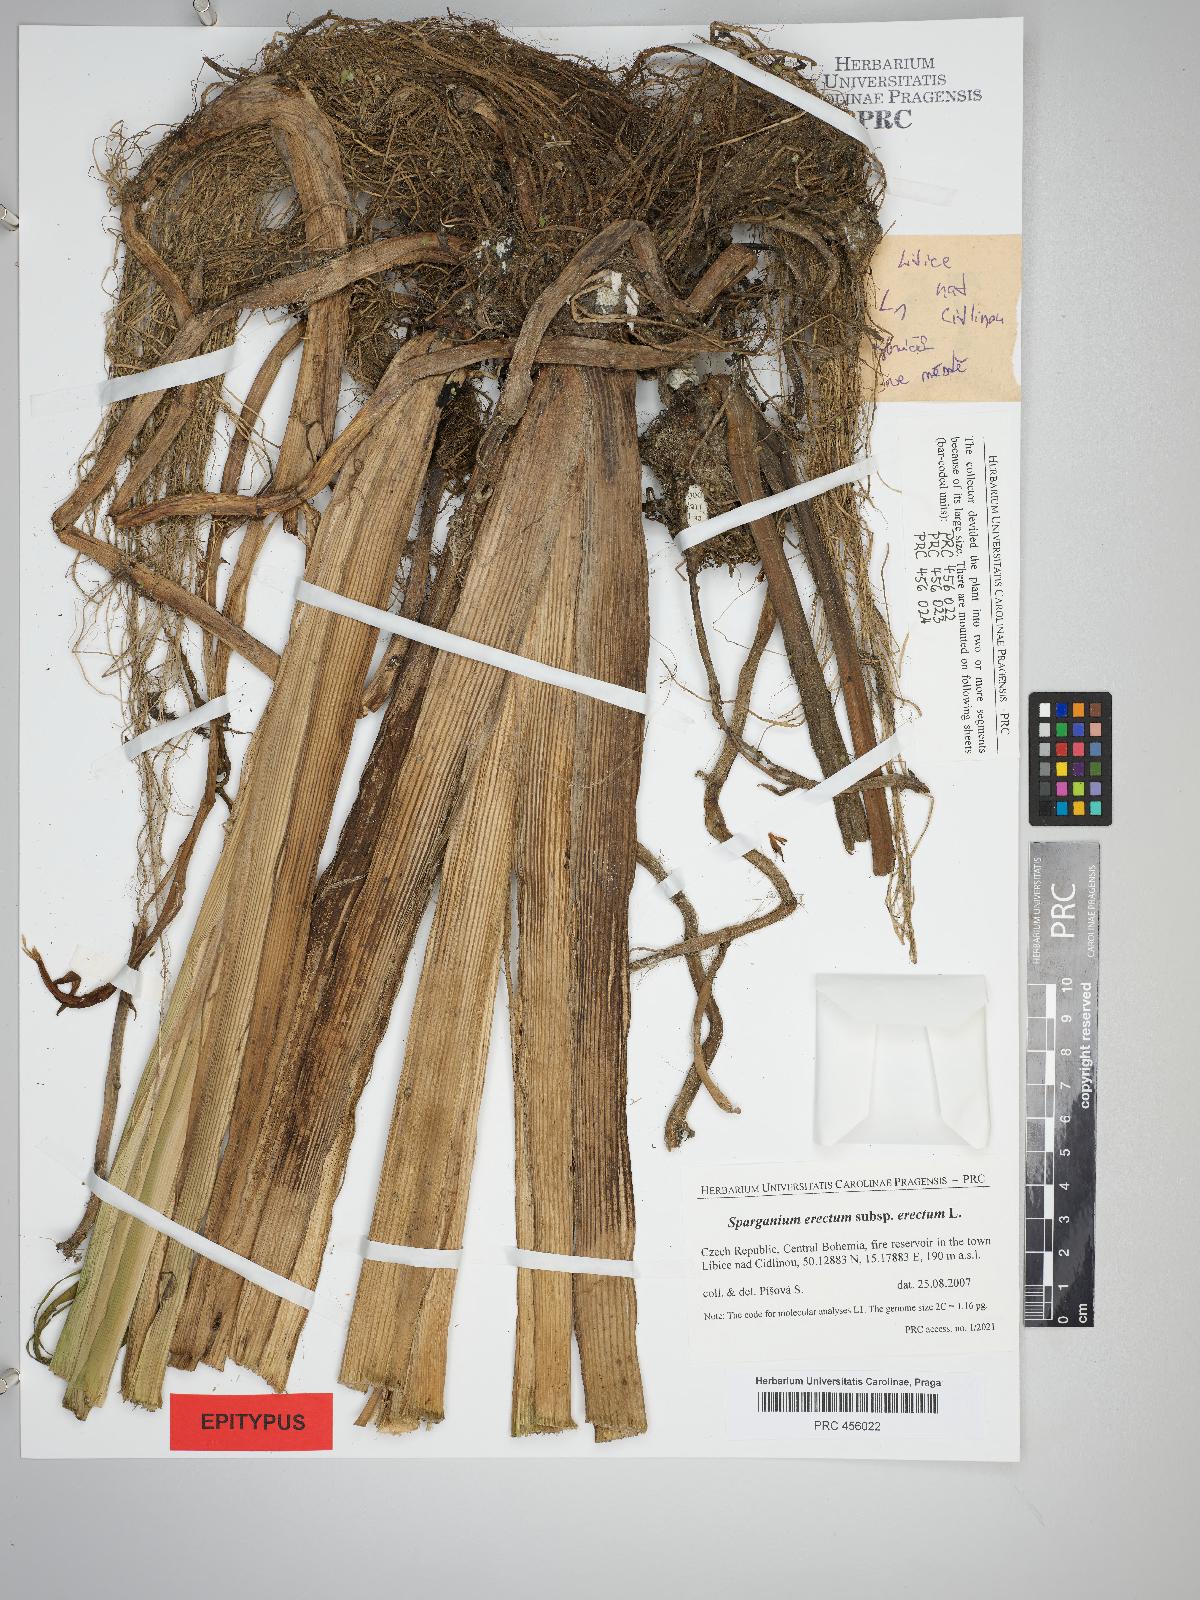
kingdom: Plantae
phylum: Tracheophyta
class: Liliopsida
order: Poales
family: Typhaceae
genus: Sparganium
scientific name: Sparganium erectum
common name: Branched bur-reed
